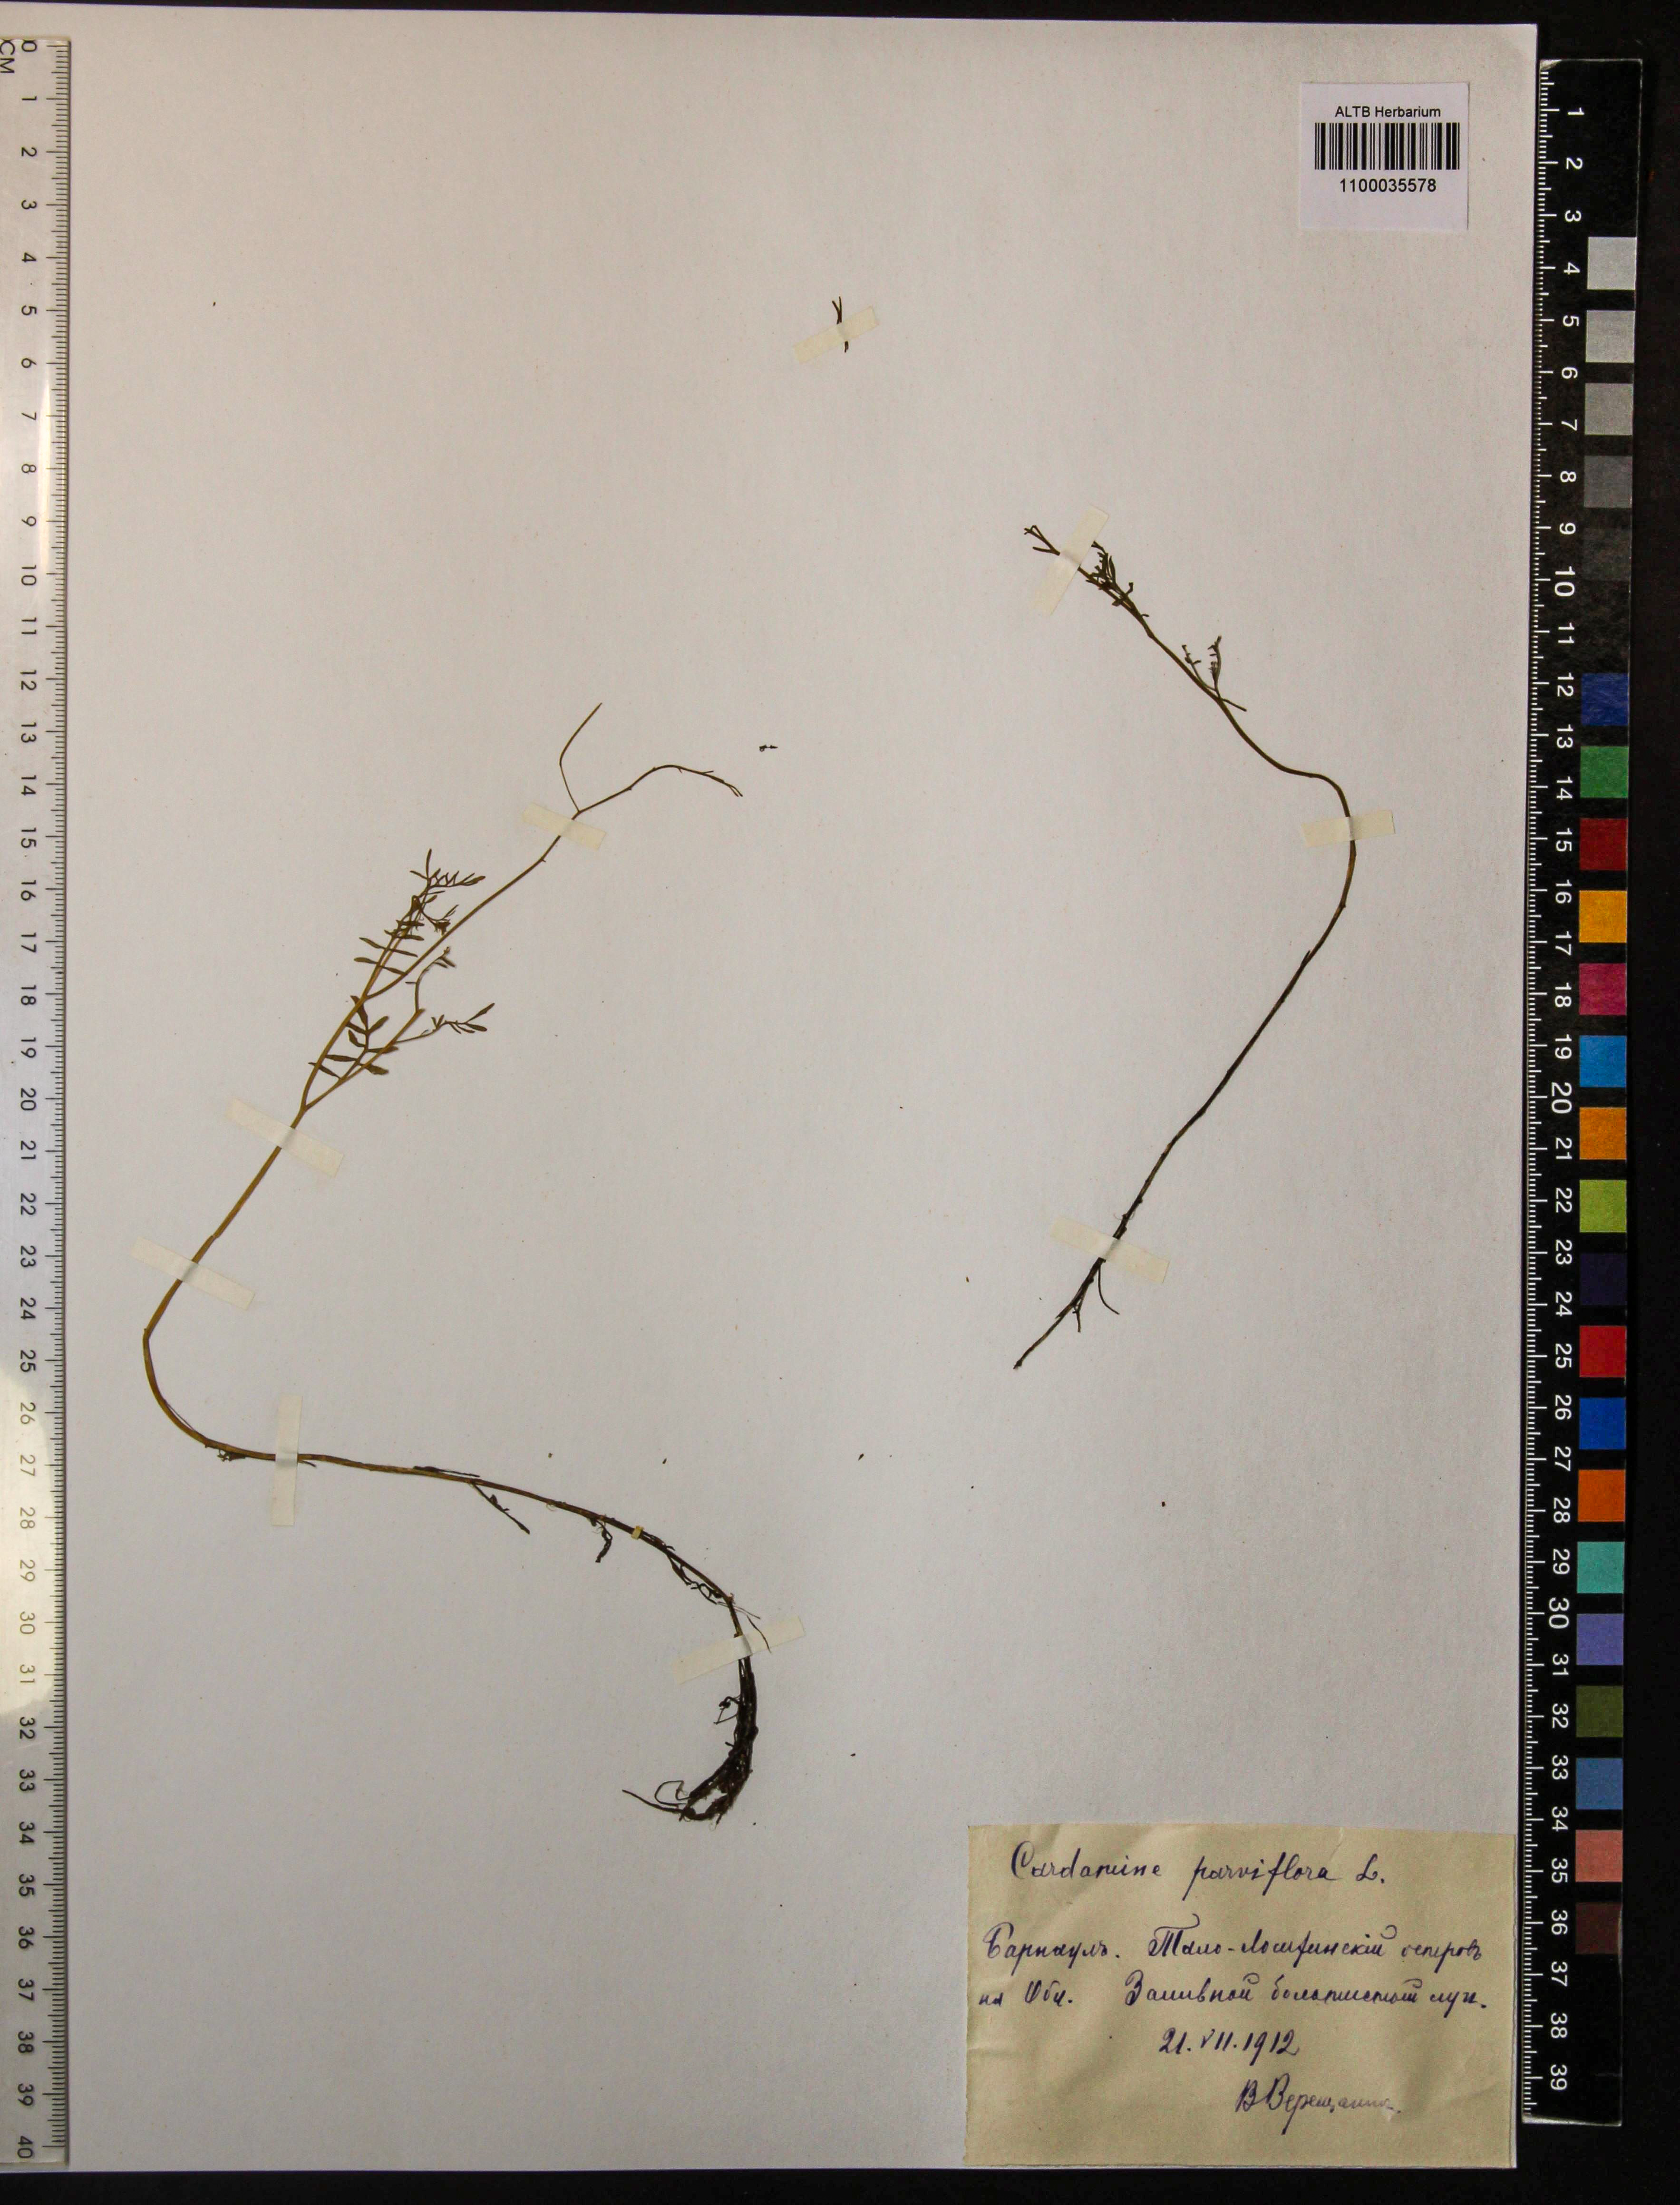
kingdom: Plantae
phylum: Tracheophyta
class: Magnoliopsida
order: Brassicales
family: Brassicaceae
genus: Cardamine
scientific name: Cardamine parviflora
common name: Sand bittercress
